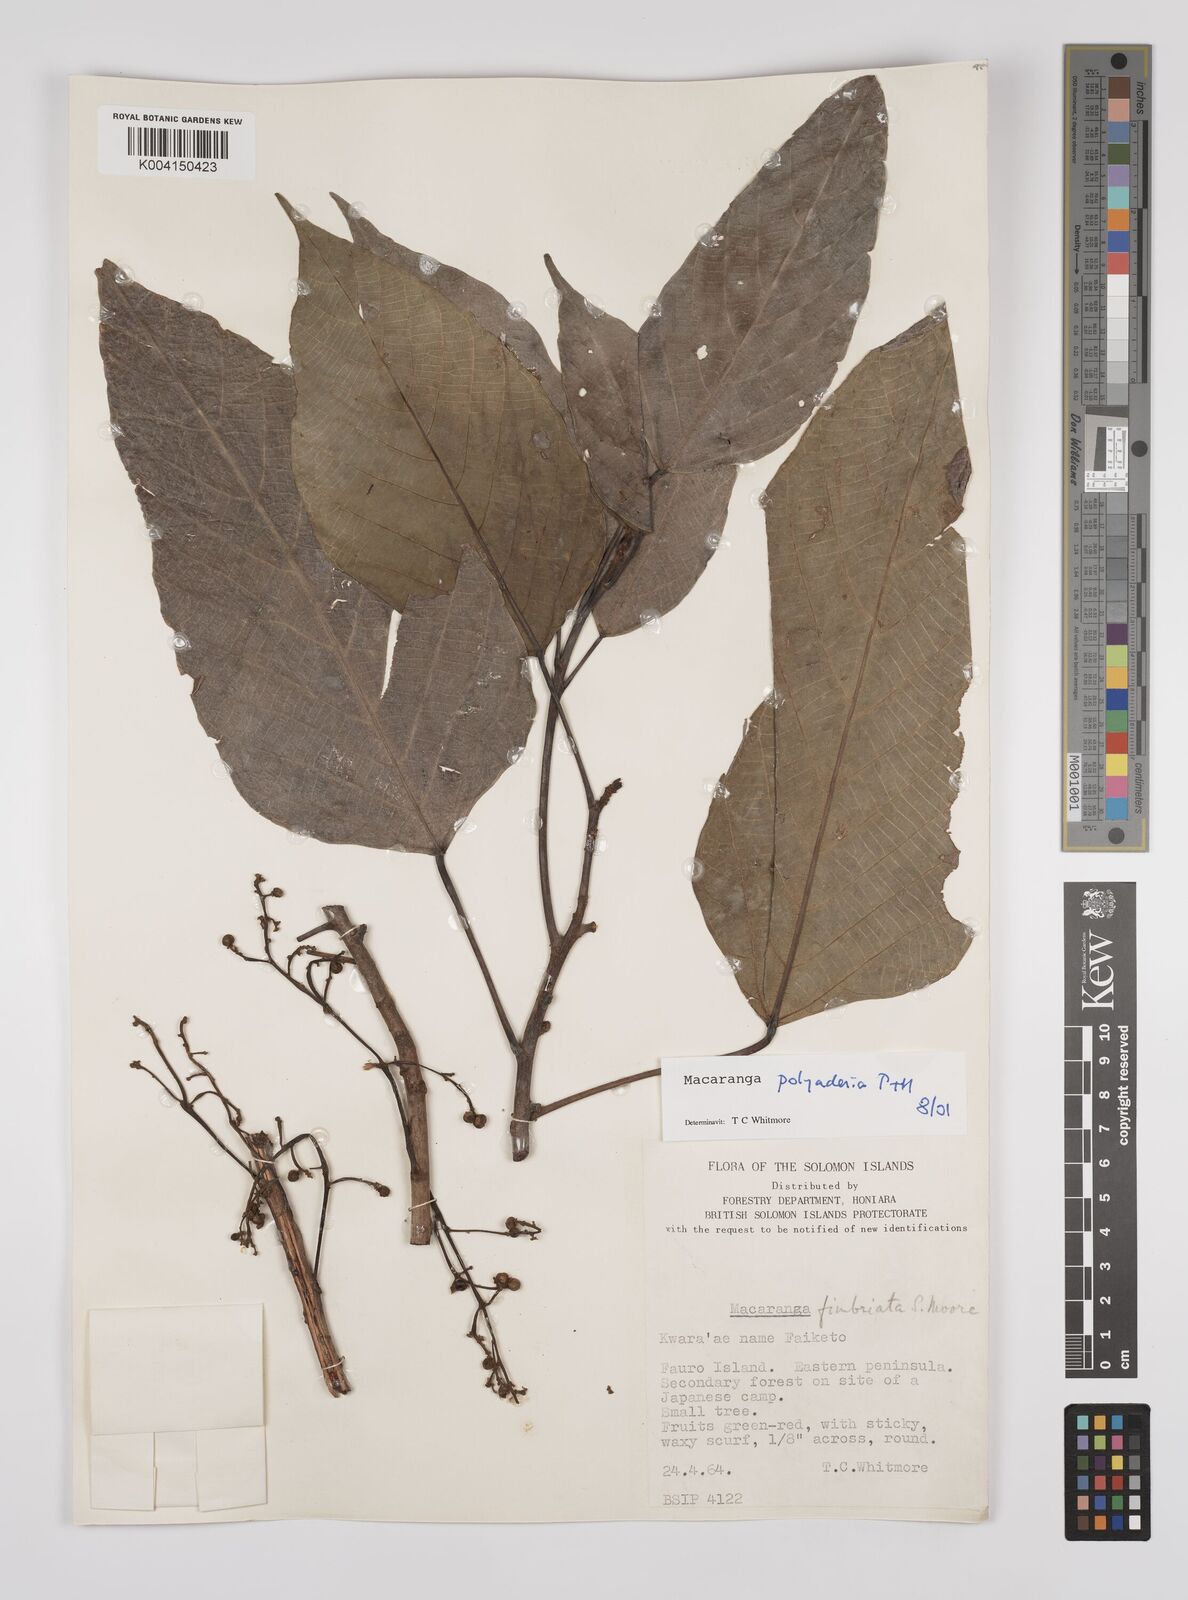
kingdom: Plantae
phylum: Tracheophyta
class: Magnoliopsida
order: Malpighiales
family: Euphorbiaceae
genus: Macaranga
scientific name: Macaranga polyadenia
